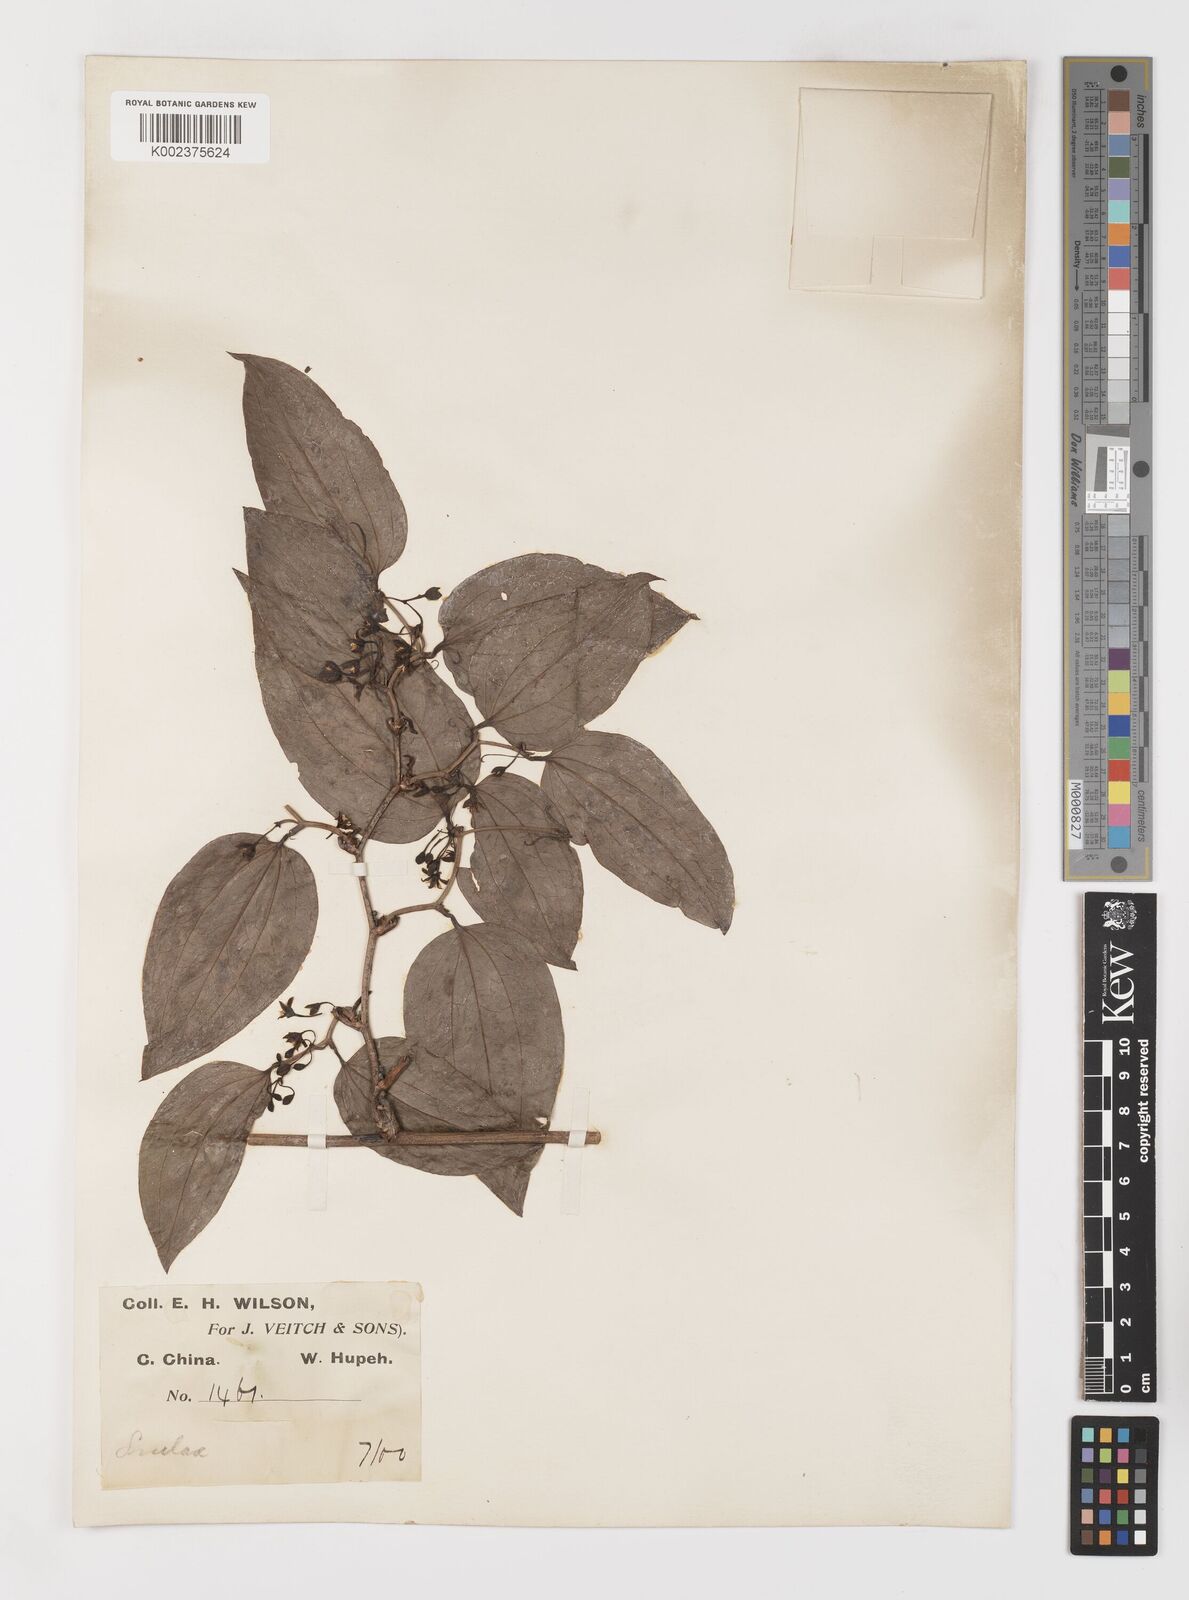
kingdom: Plantae
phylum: Tracheophyta
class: Liliopsida
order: Liliales
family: Smilacaceae
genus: Smilax
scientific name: Smilax scobinicaulis
